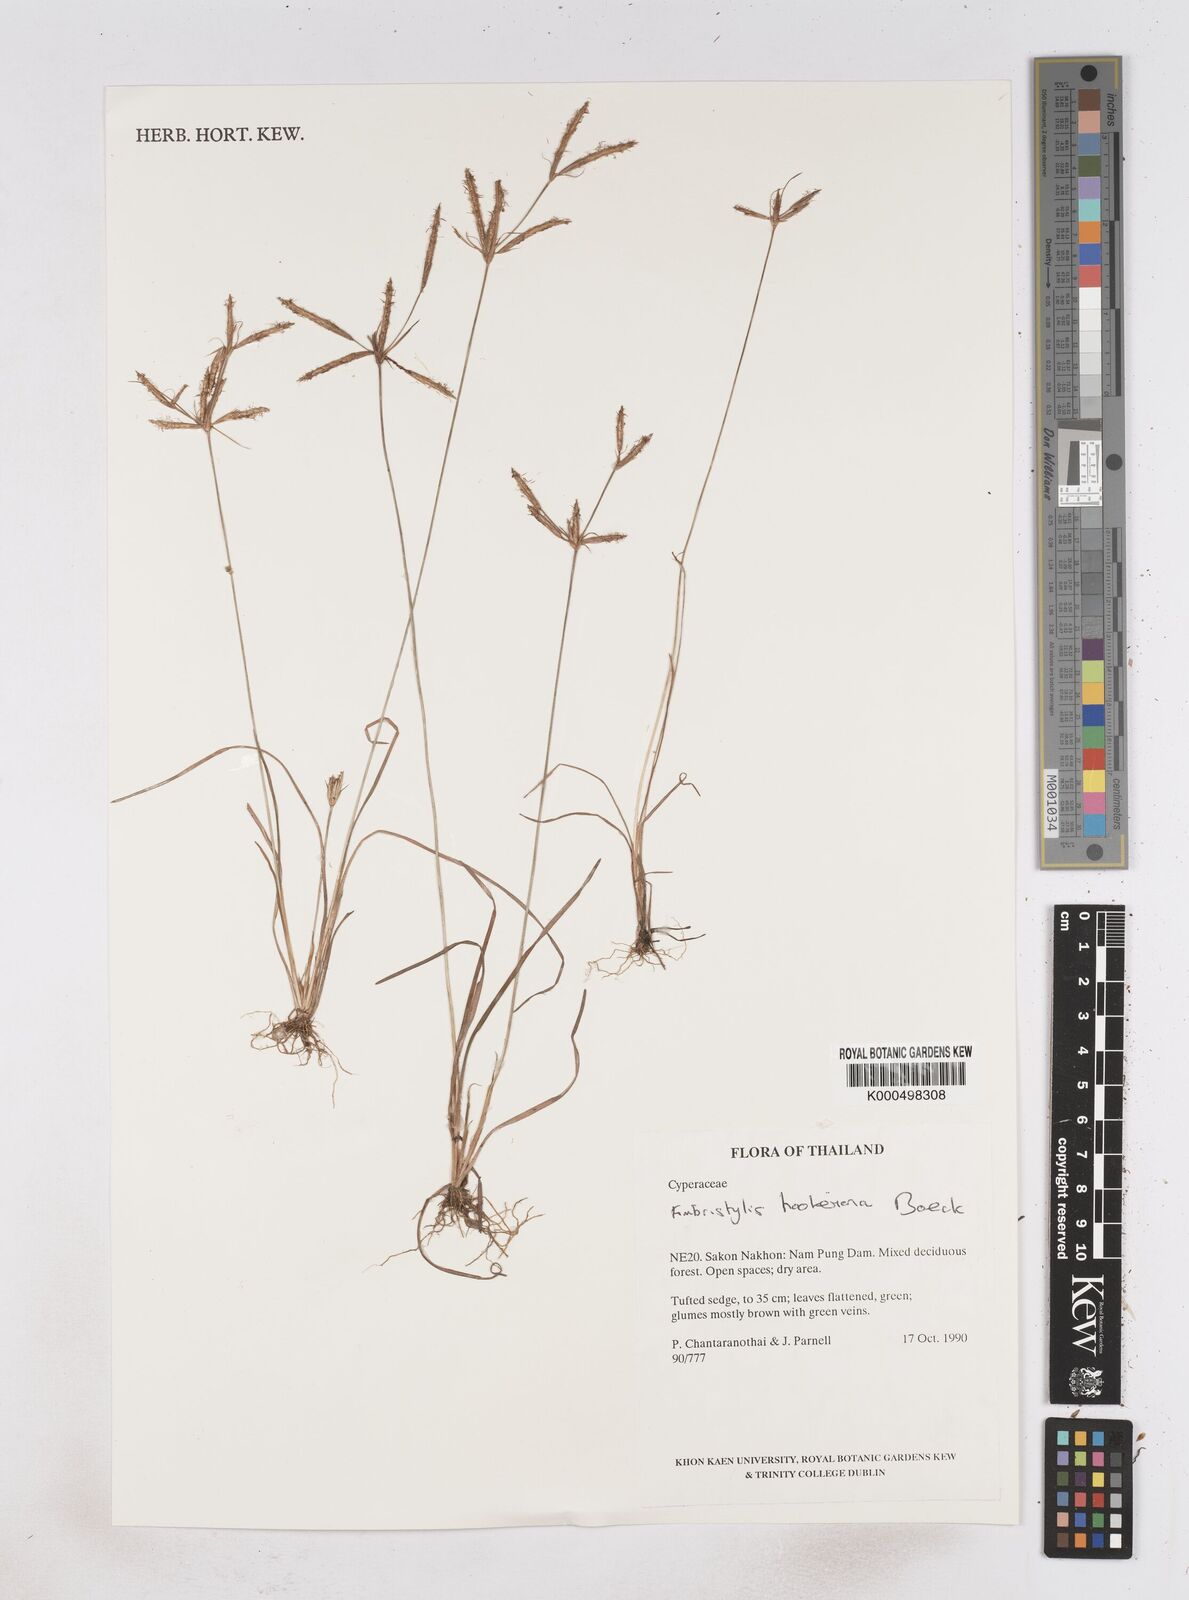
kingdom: Plantae
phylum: Tracheophyta
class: Liliopsida
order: Poales
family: Cyperaceae
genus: Fimbristylis
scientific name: Fimbristylis hookeriana
